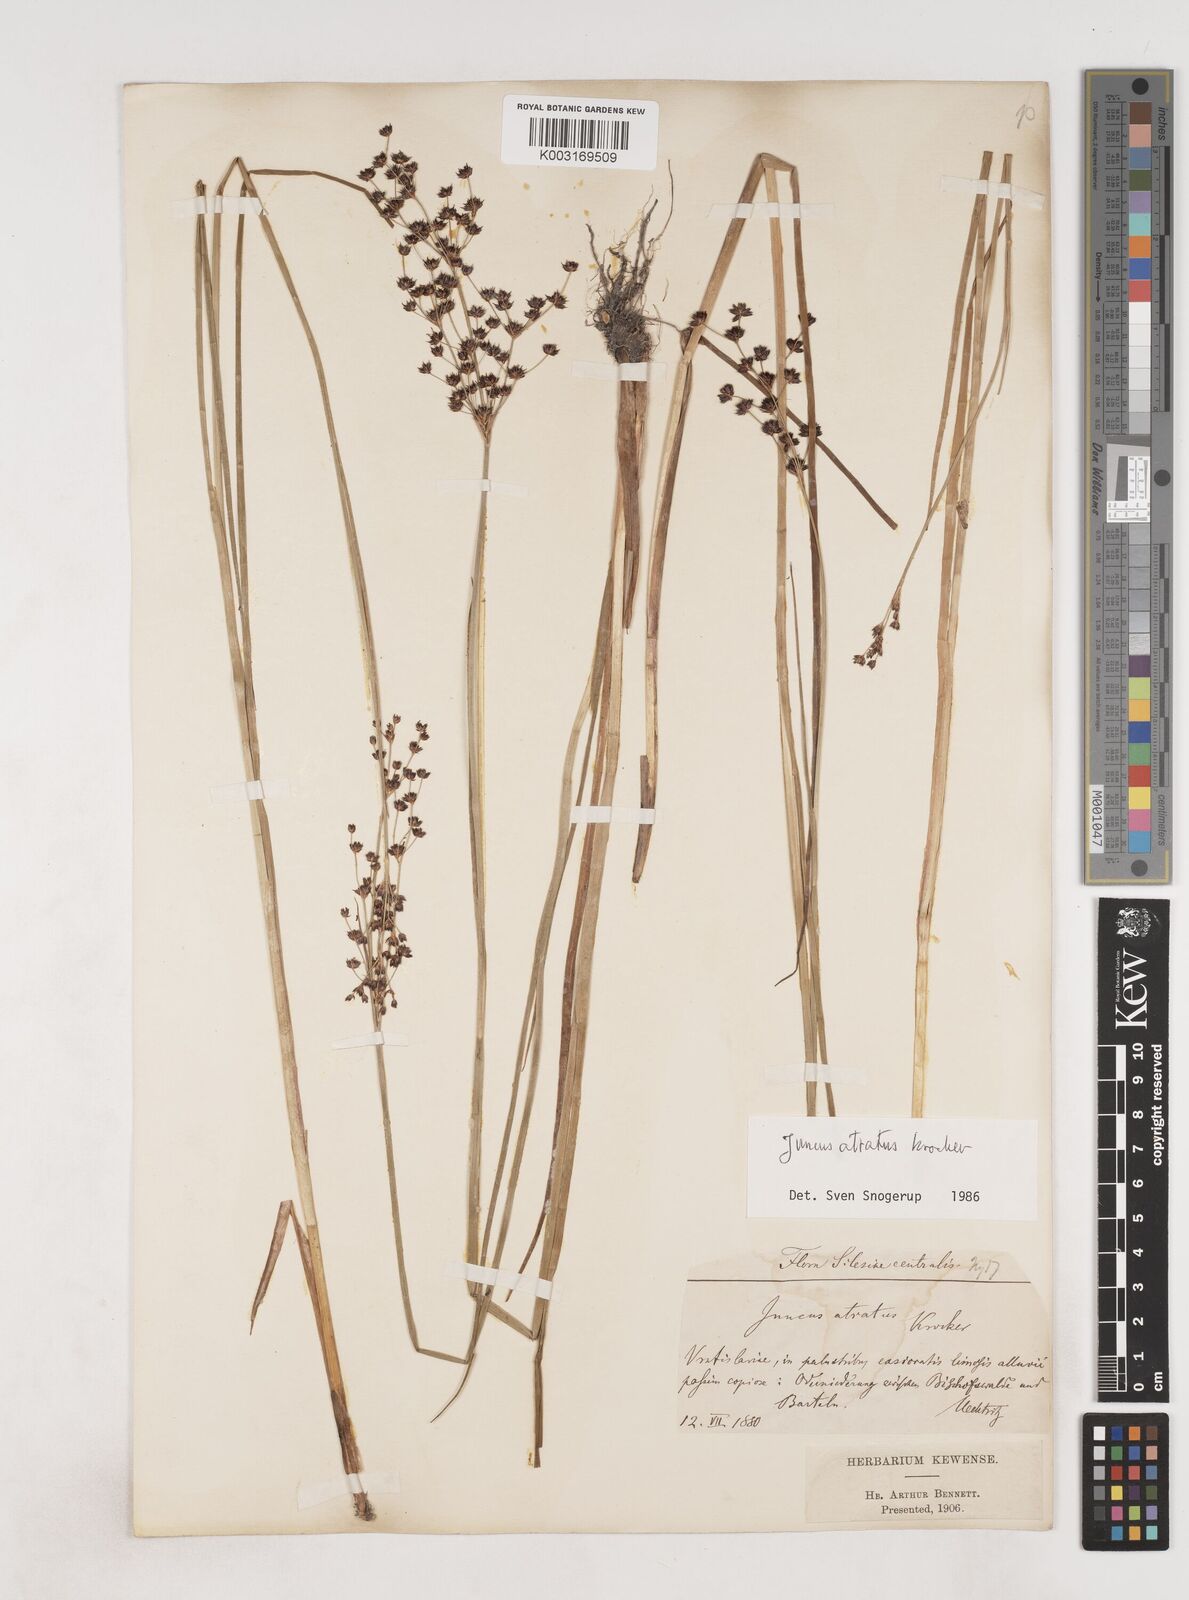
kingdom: Plantae
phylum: Tracheophyta
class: Liliopsida
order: Poales
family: Juncaceae
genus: Juncus
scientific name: Juncus atratus
